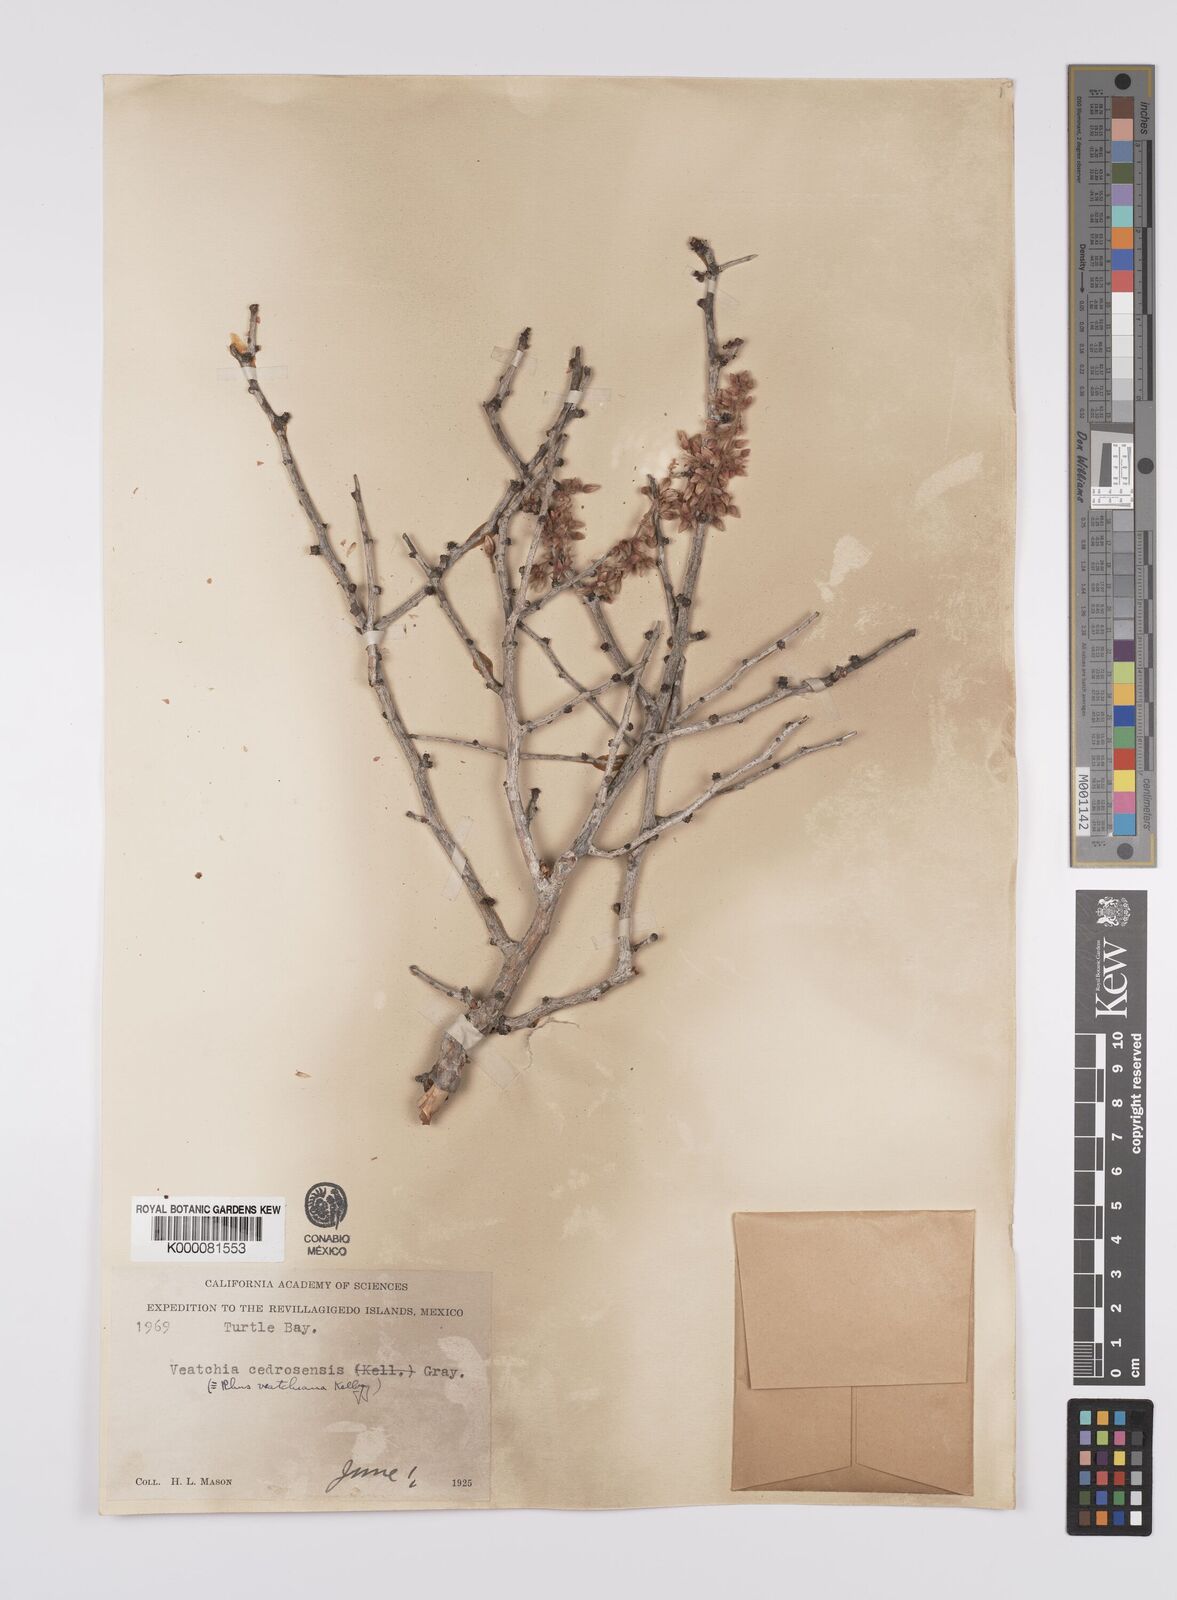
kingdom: Plantae
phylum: Tracheophyta
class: Magnoliopsida
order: Sapindales
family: Anacardiaceae
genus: Pachycormus
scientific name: Pachycormus
